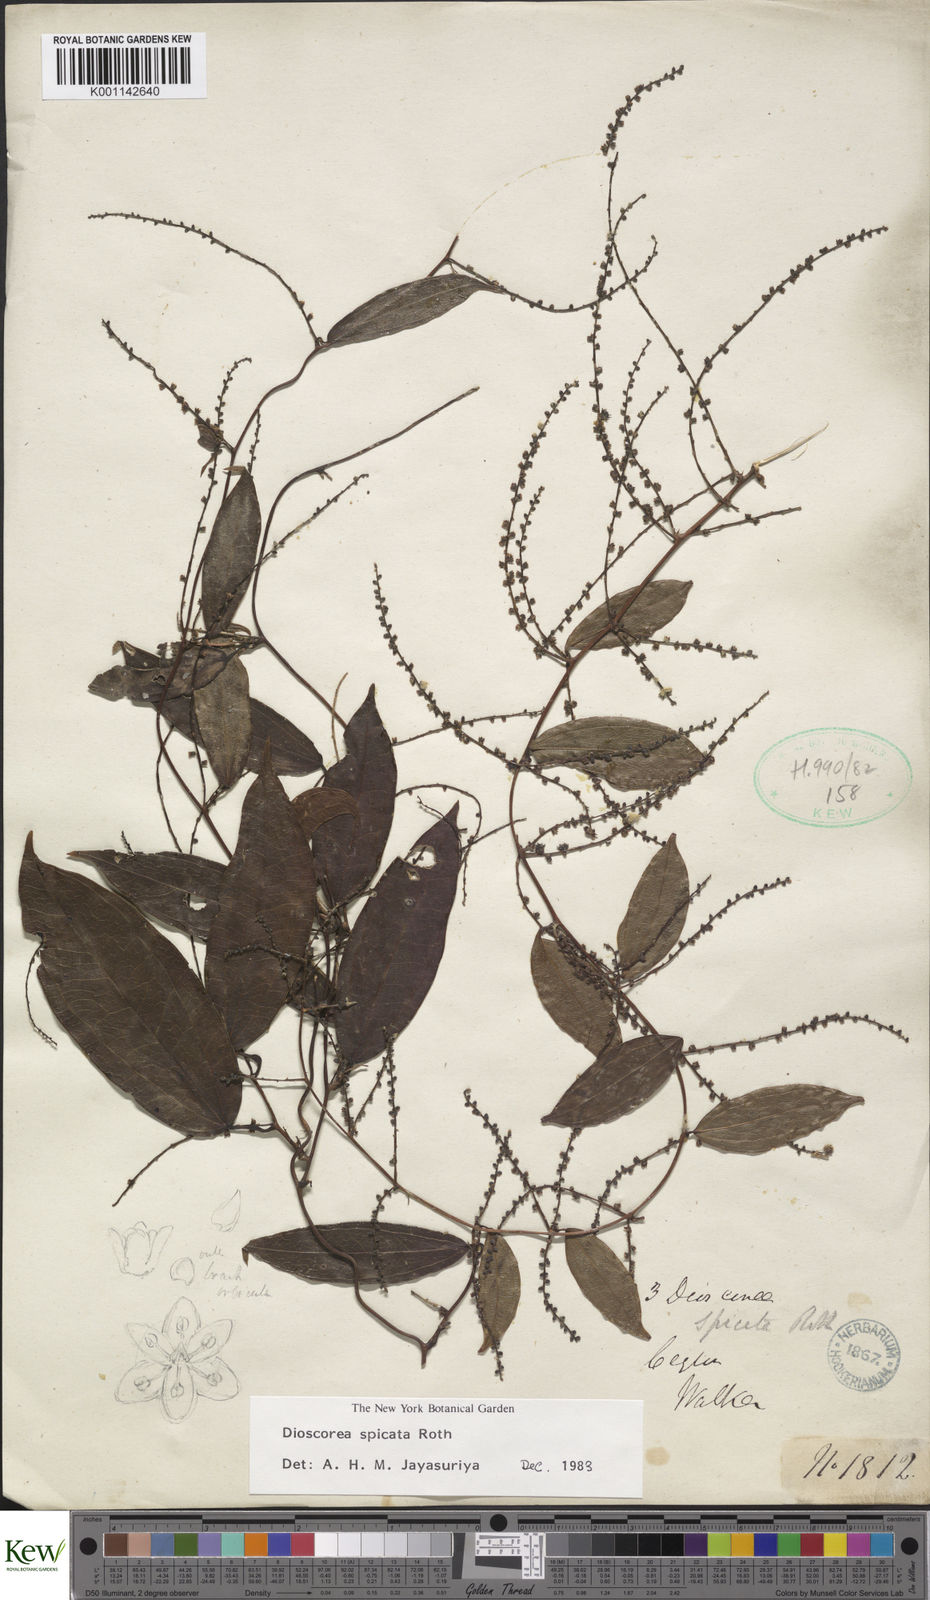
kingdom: Plantae
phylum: Tracheophyta
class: Liliopsida
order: Dioscoreales
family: Dioscoreaceae
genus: Dioscorea
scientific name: Dioscorea spicata
